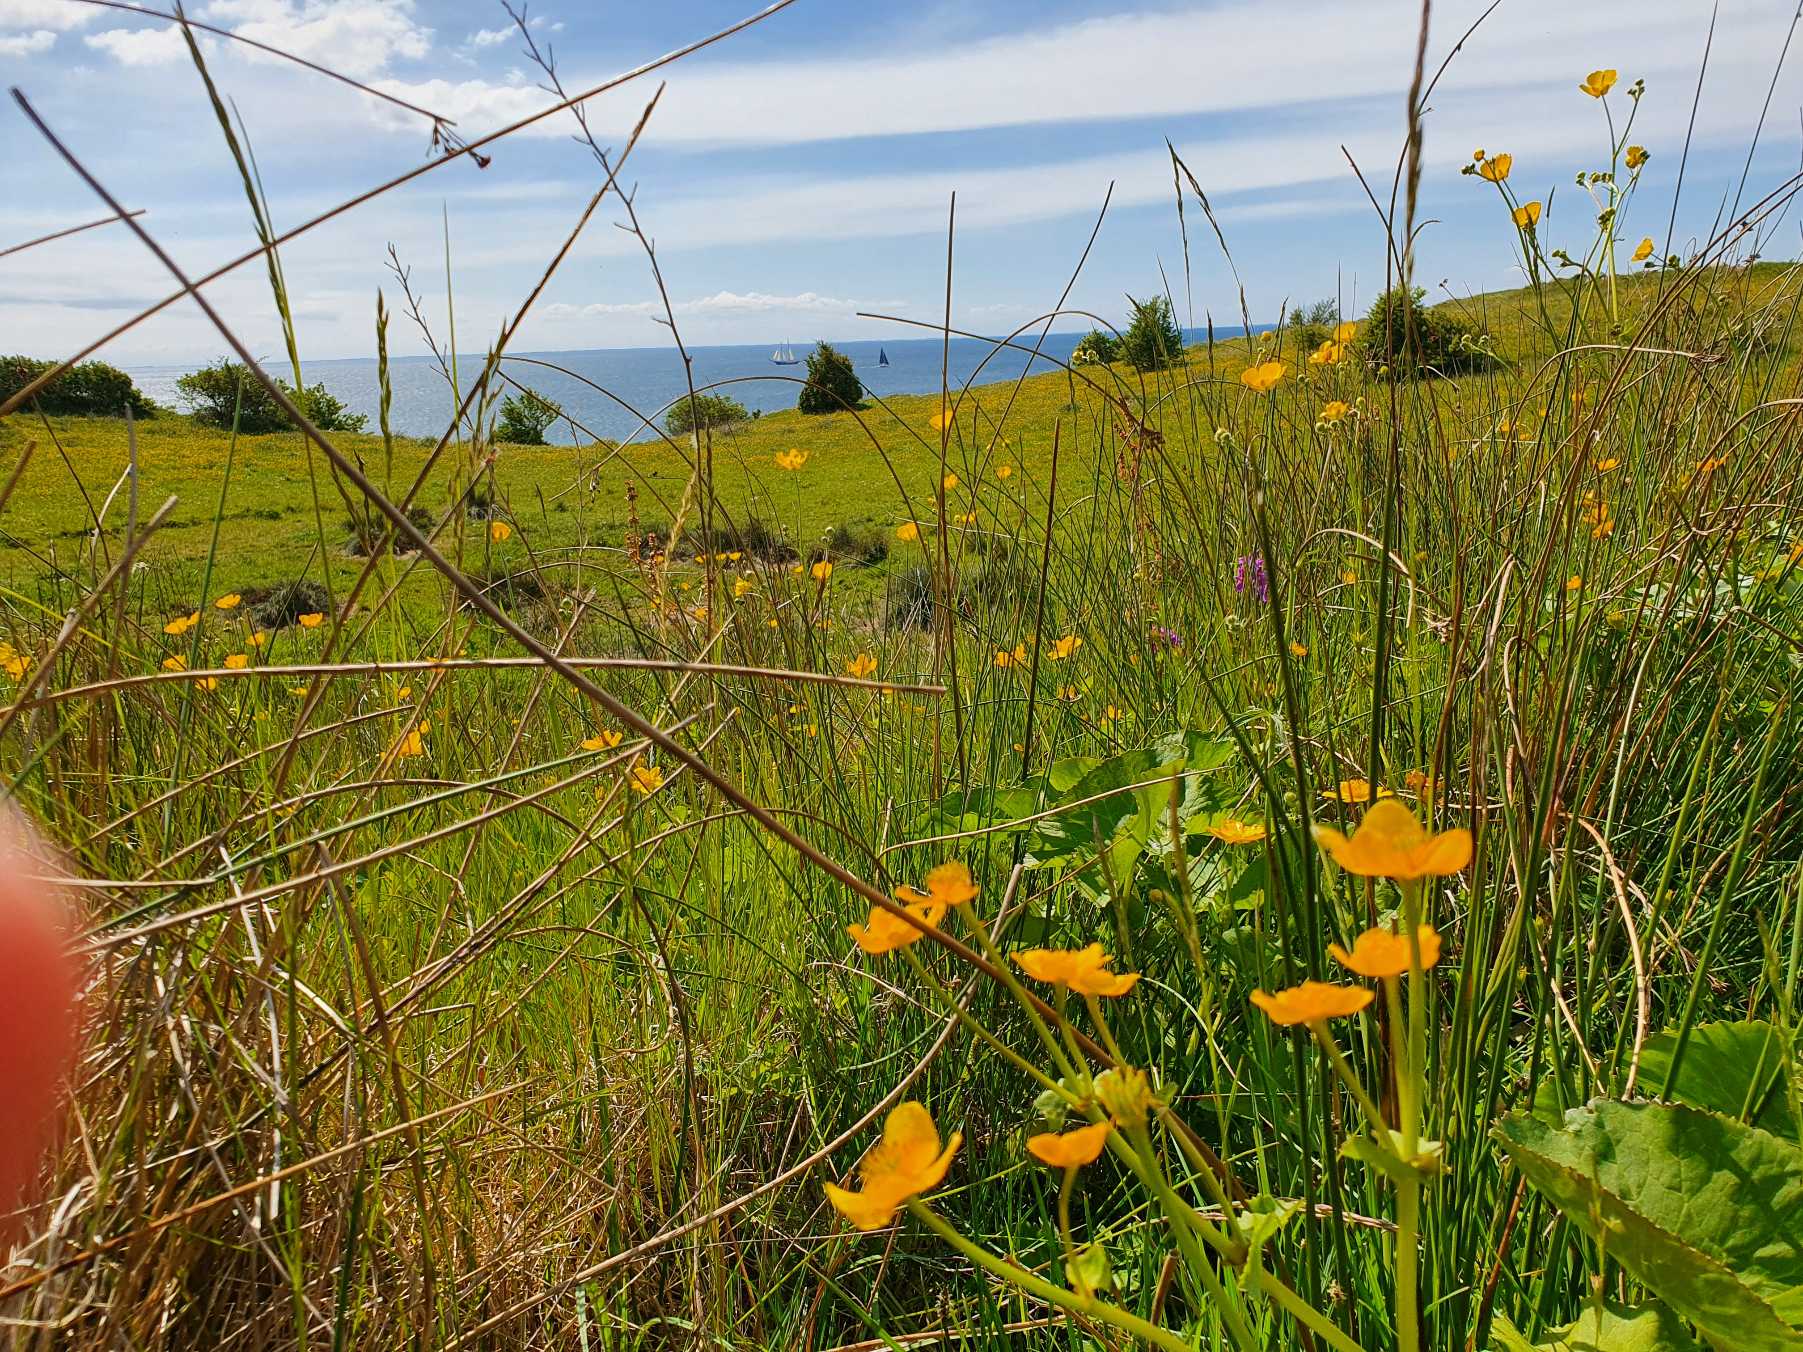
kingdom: Plantae
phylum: Tracheophyta
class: Magnoliopsida
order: Ranunculales
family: Ranunculaceae
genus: Caltha
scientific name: Caltha palustris
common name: Eng-kabbeleje
